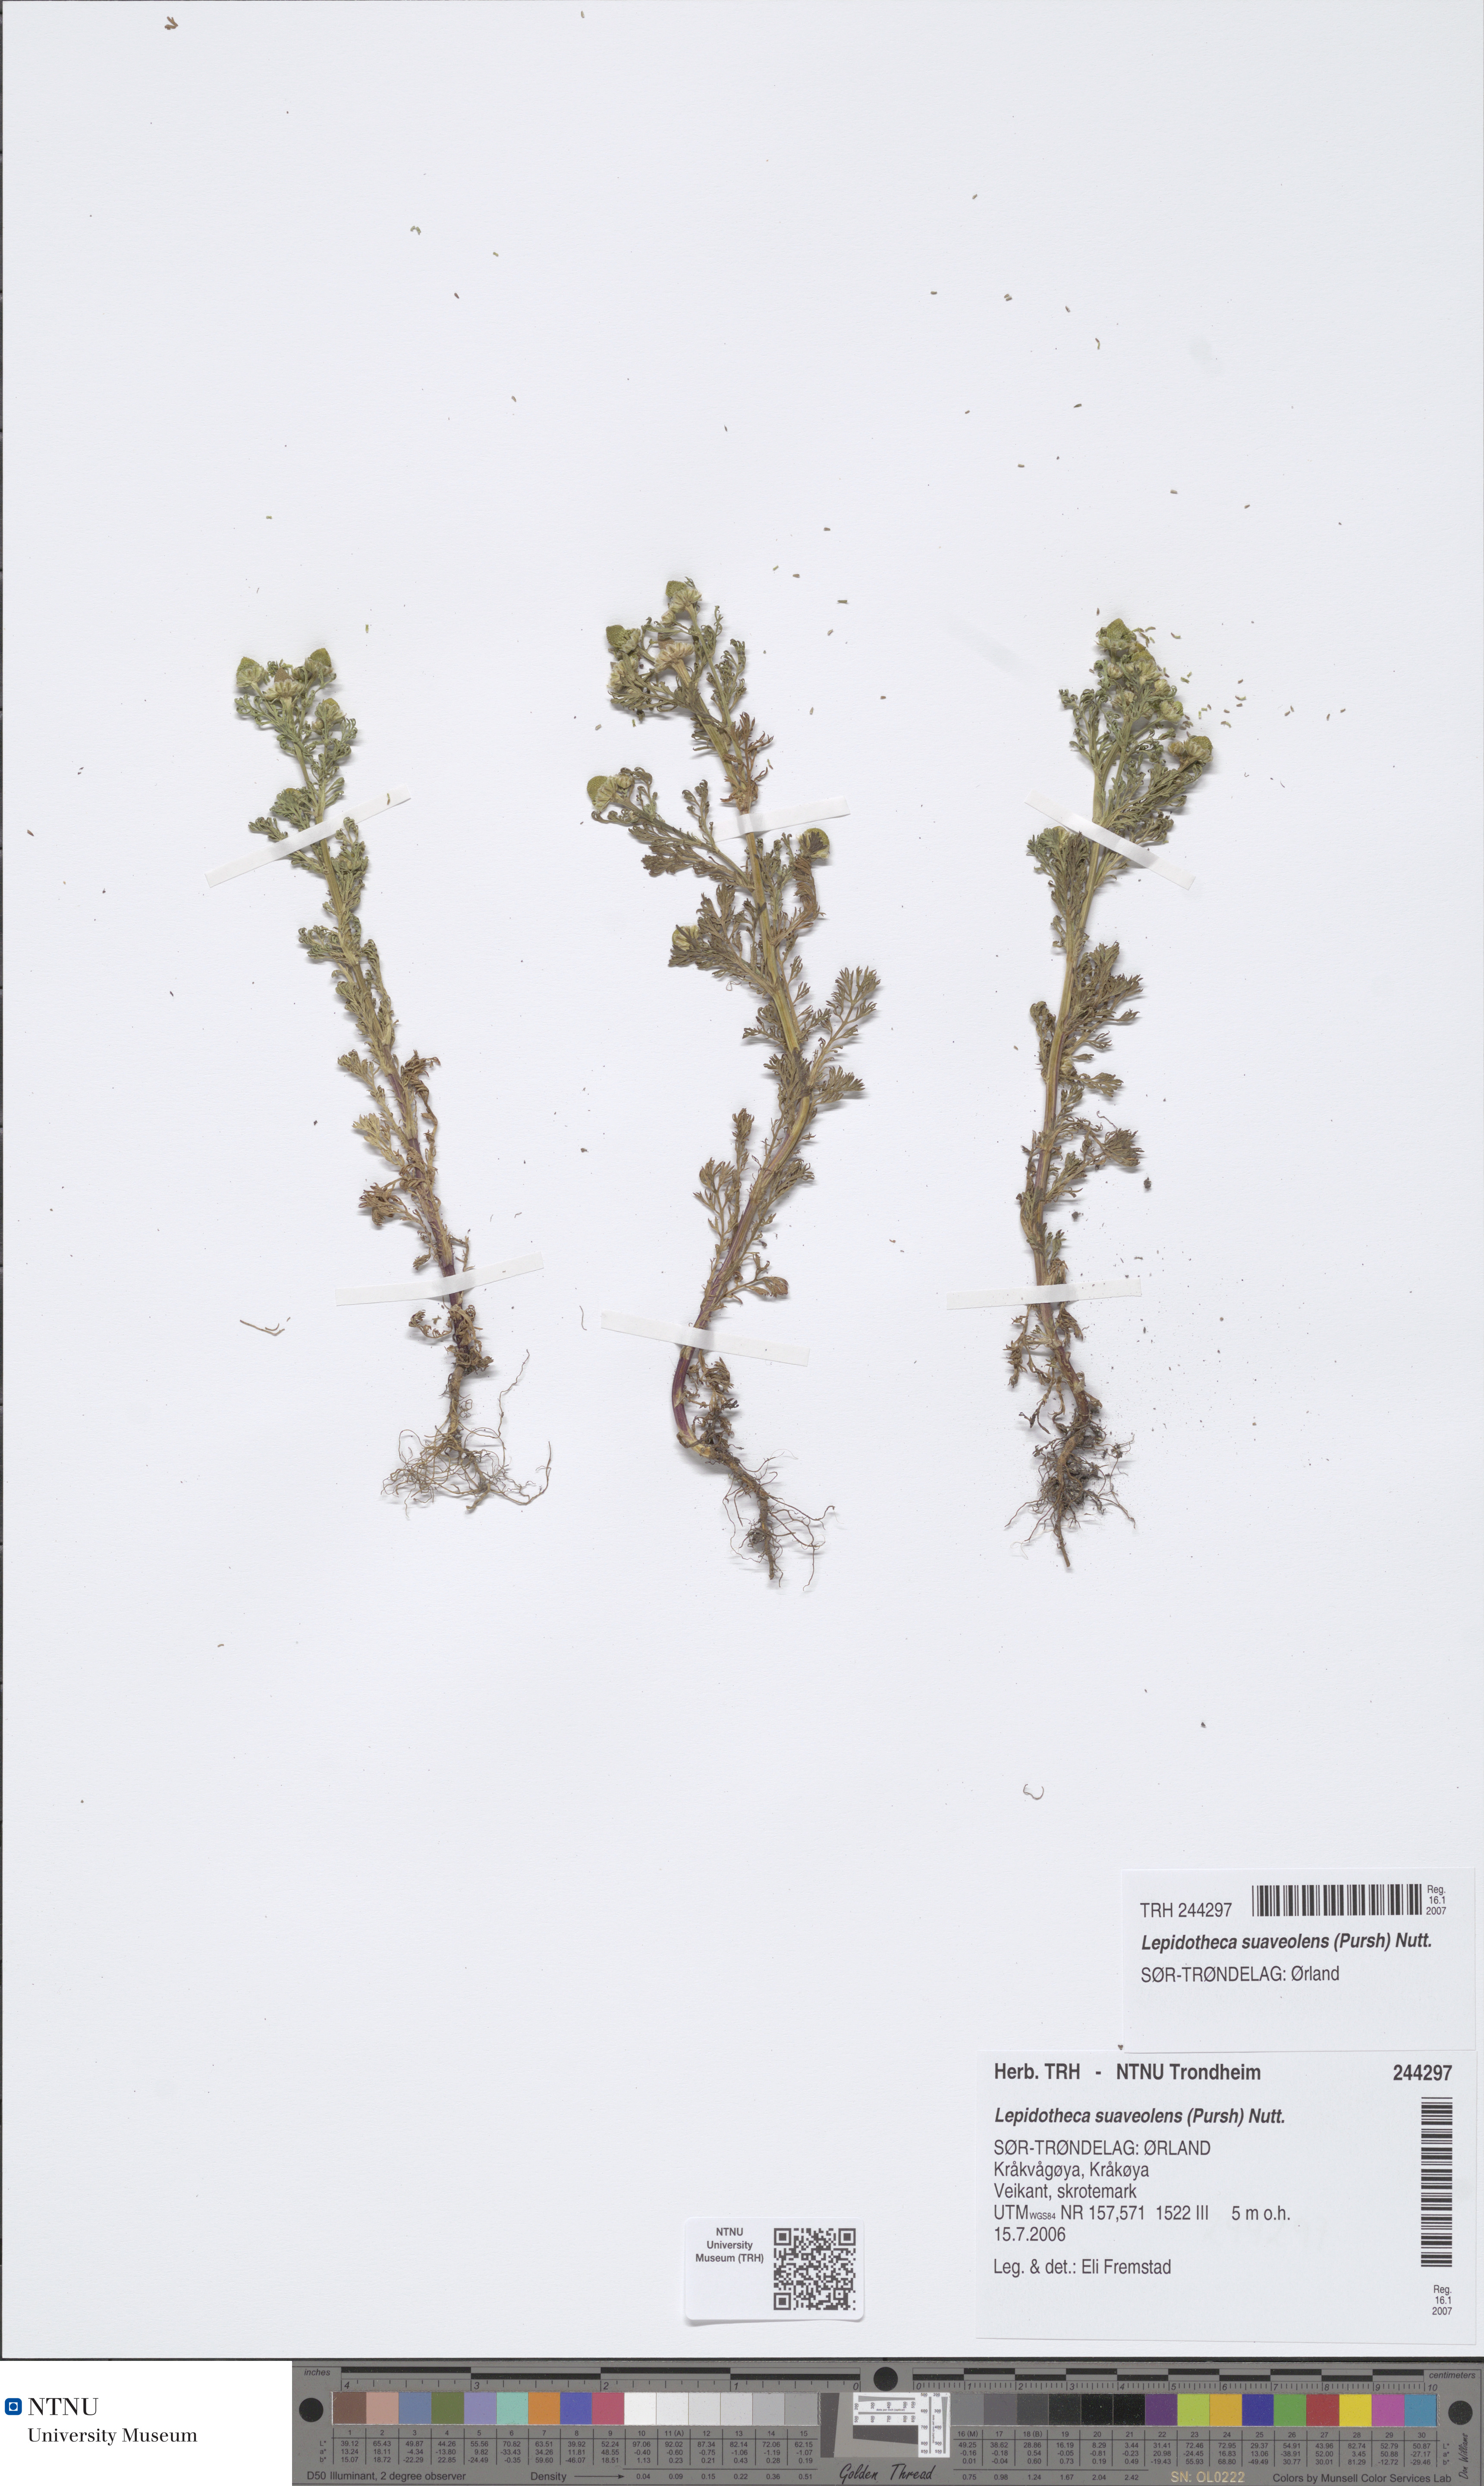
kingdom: Plantae
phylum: Tracheophyta
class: Magnoliopsida
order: Asterales
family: Asteraceae
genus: Matricaria
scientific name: Matricaria discoidea
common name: Disc mayweed
